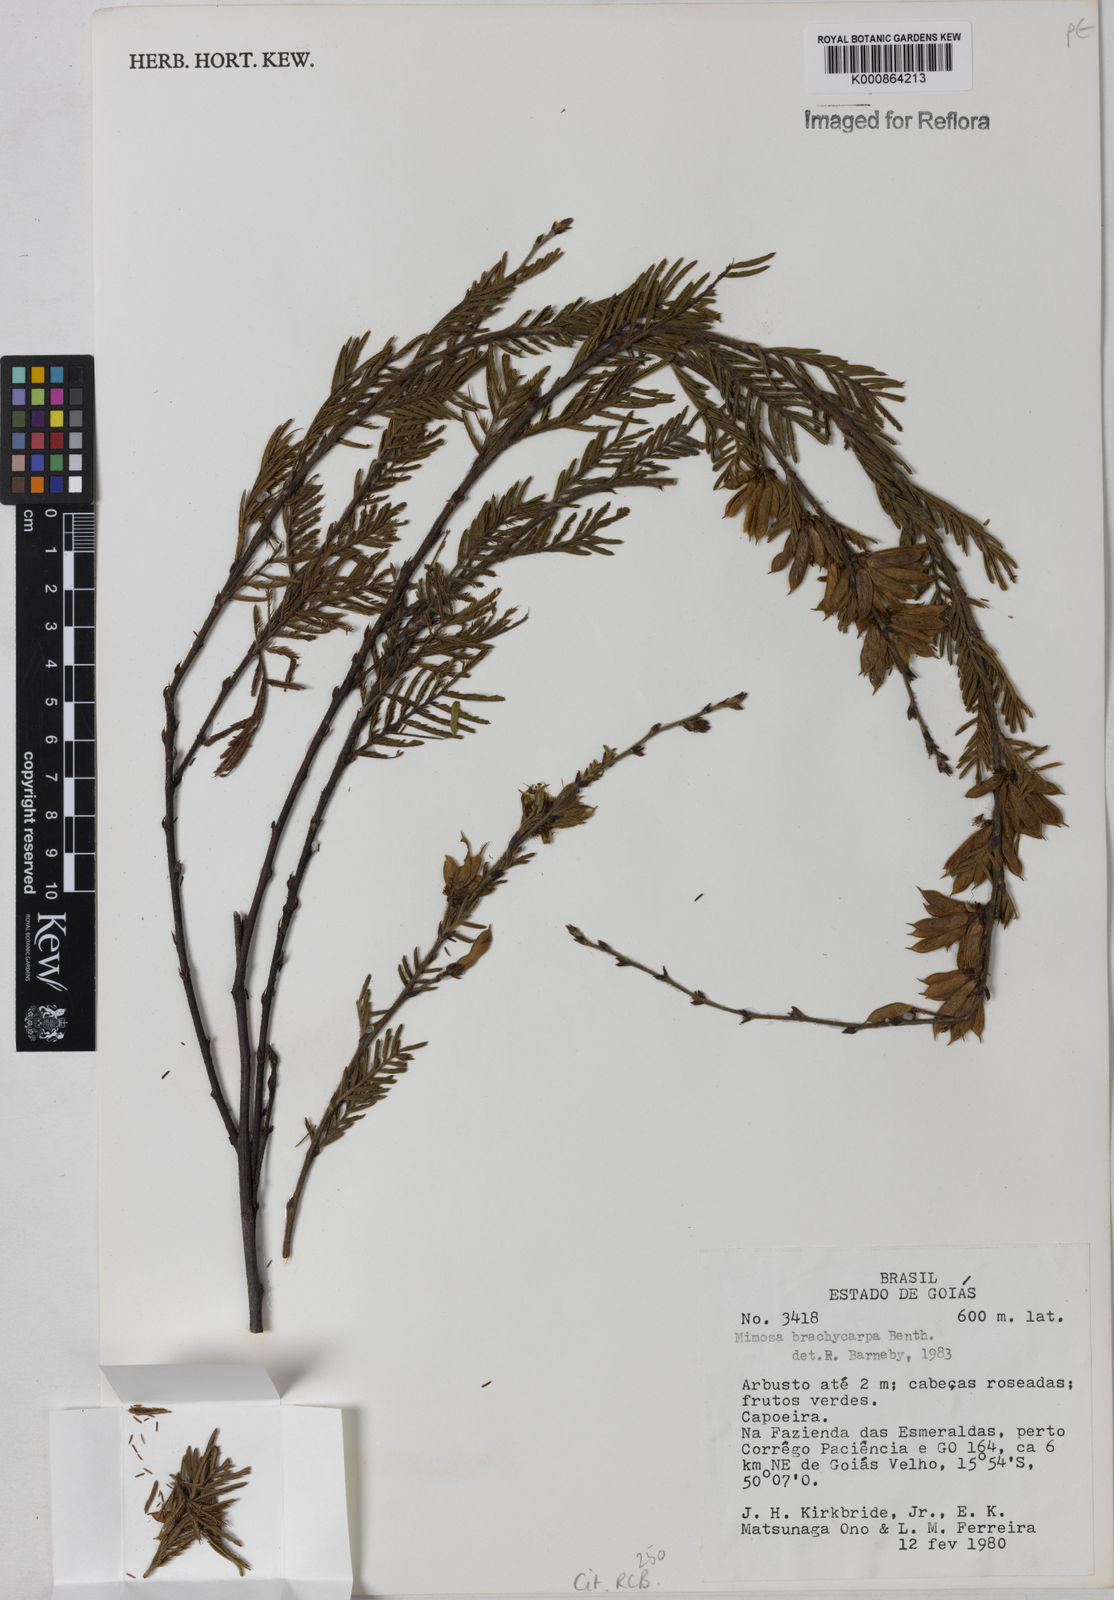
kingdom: Plantae
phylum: Tracheophyta
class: Magnoliopsida
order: Fabales
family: Fabaceae
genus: Mimosa
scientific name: Mimosa brachycarpa
